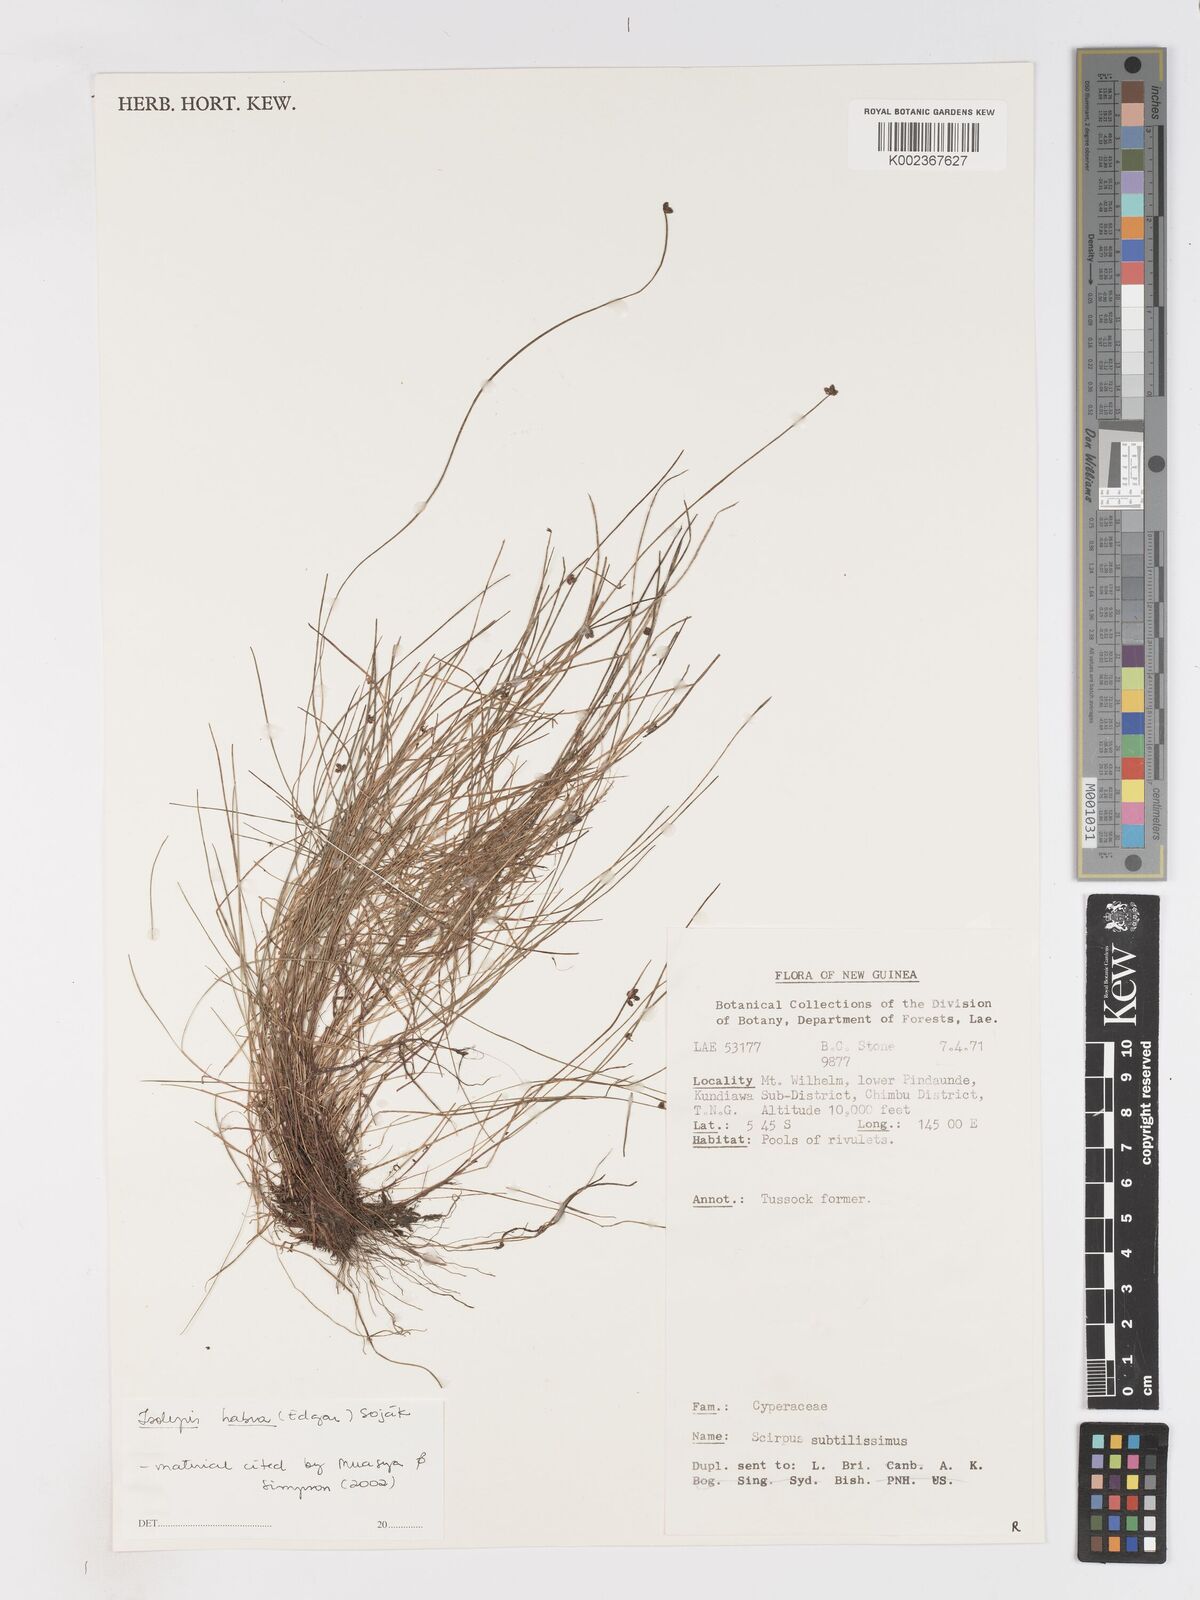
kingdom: Plantae
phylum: Tracheophyta
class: Liliopsida
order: Poales
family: Cyperaceae
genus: Isolepis
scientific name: Isolepis habra
